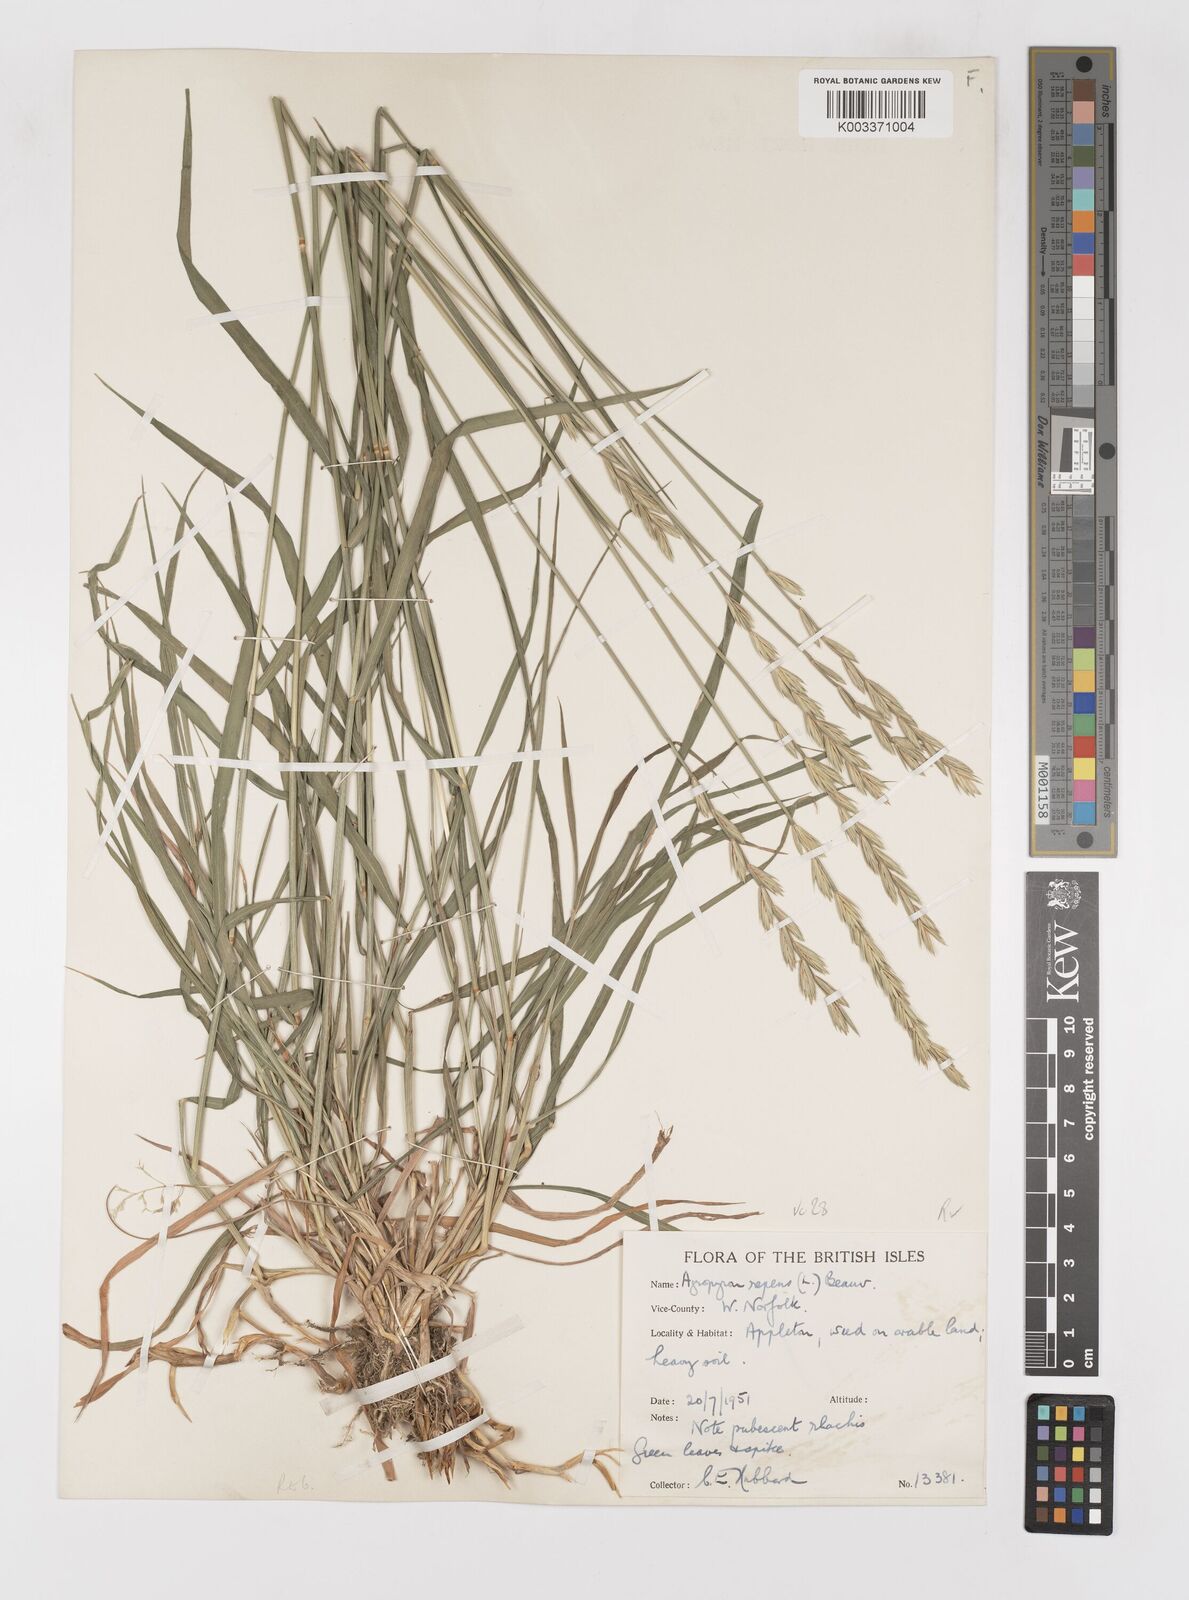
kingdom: Plantae
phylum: Tracheophyta
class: Liliopsida
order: Poales
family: Poaceae
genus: Elymus
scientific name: Elymus repens
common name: Quackgrass
